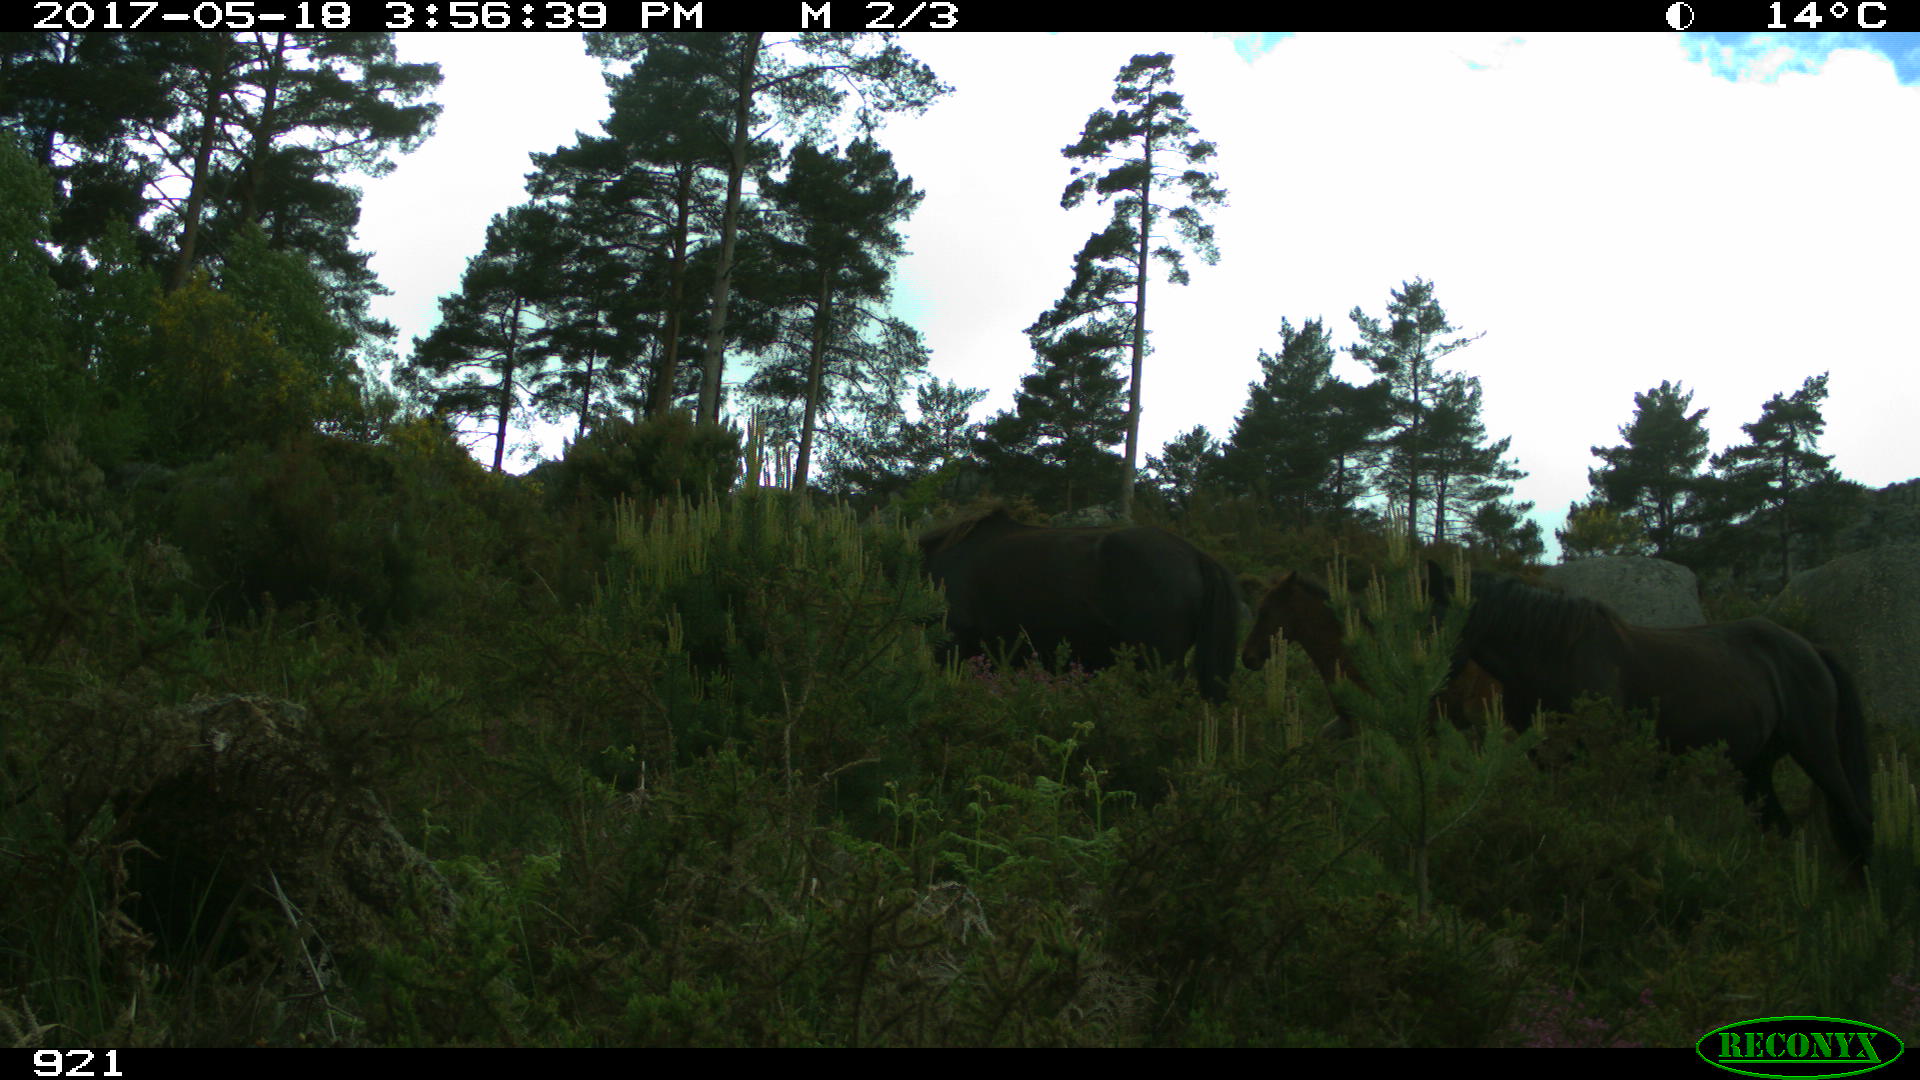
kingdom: Animalia
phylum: Chordata
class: Mammalia
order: Perissodactyla
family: Equidae
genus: Equus
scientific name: Equus caballus
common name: Horse
